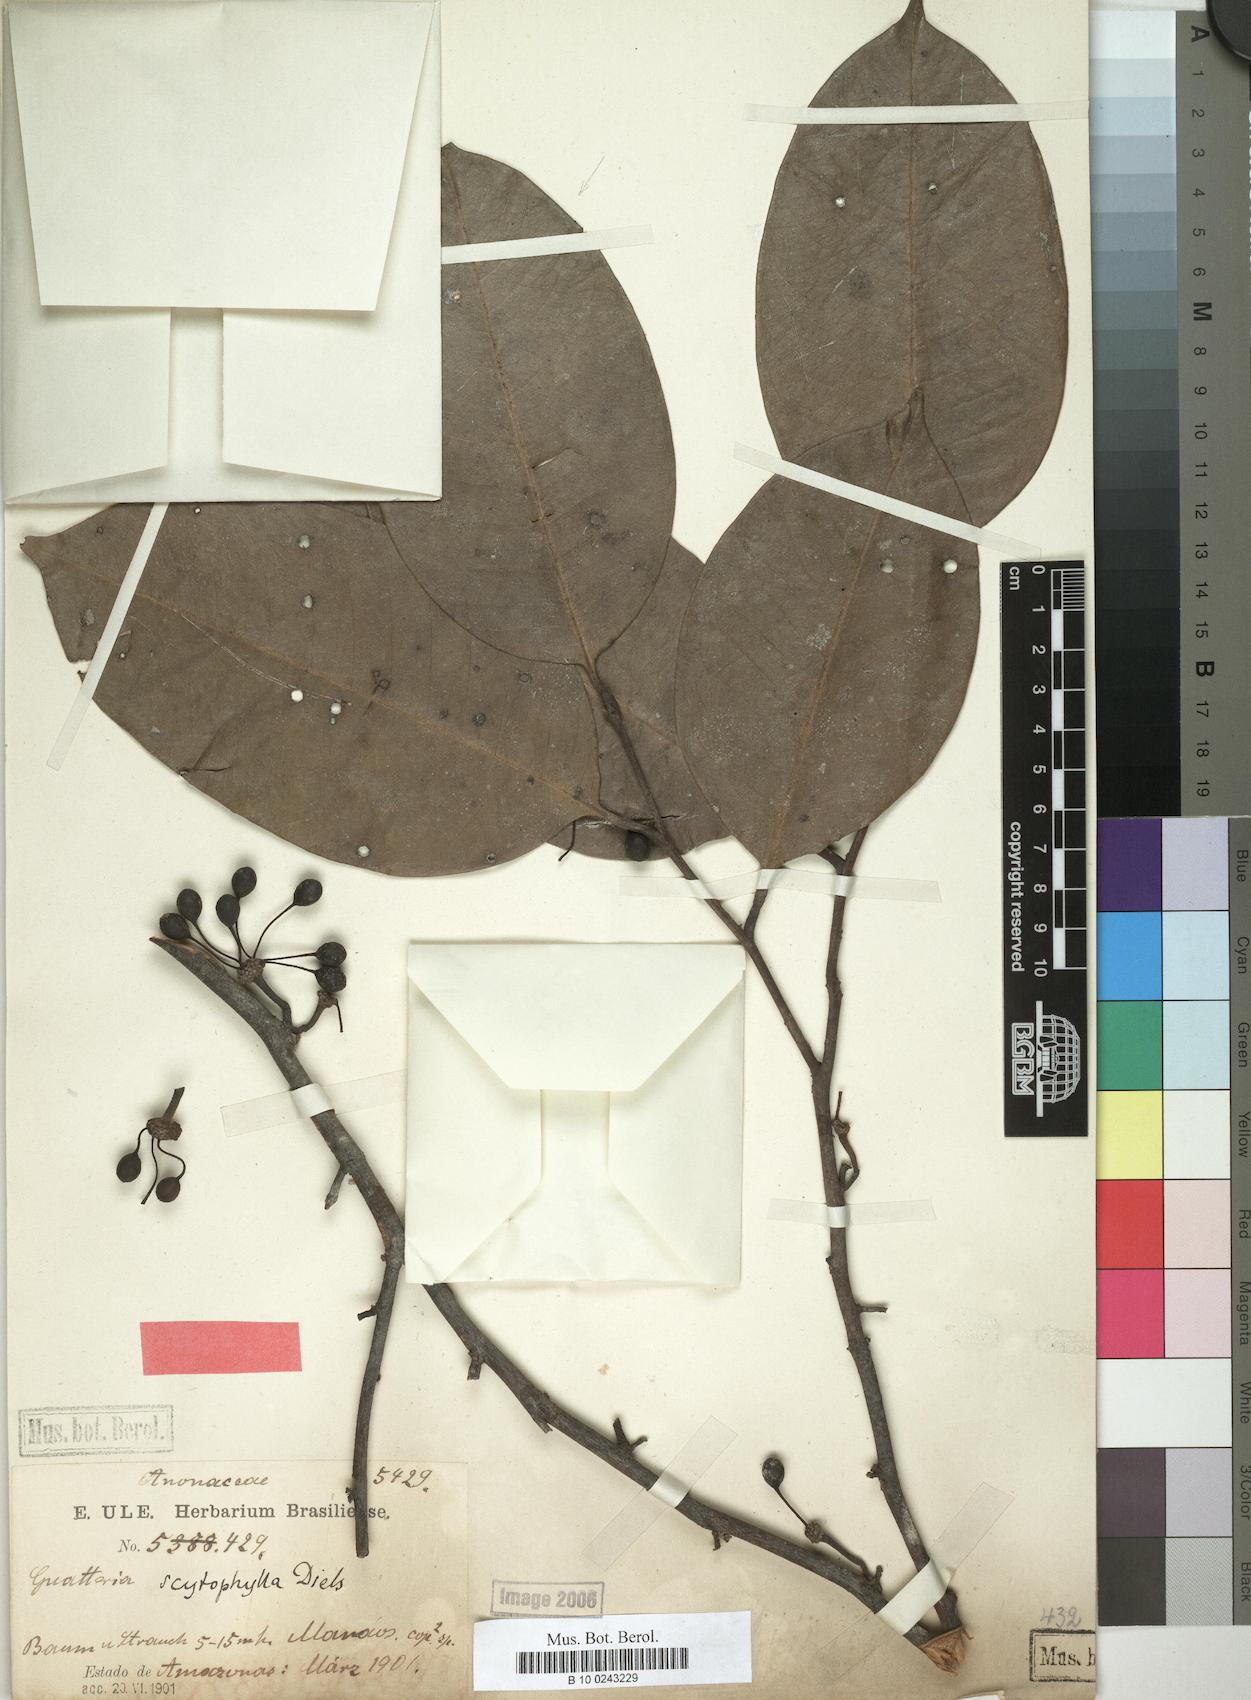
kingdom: Plantae
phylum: Tracheophyta
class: Magnoliopsida
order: Magnoliales
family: Annonaceae
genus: Guatteria
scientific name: Guatteria scytophylla
